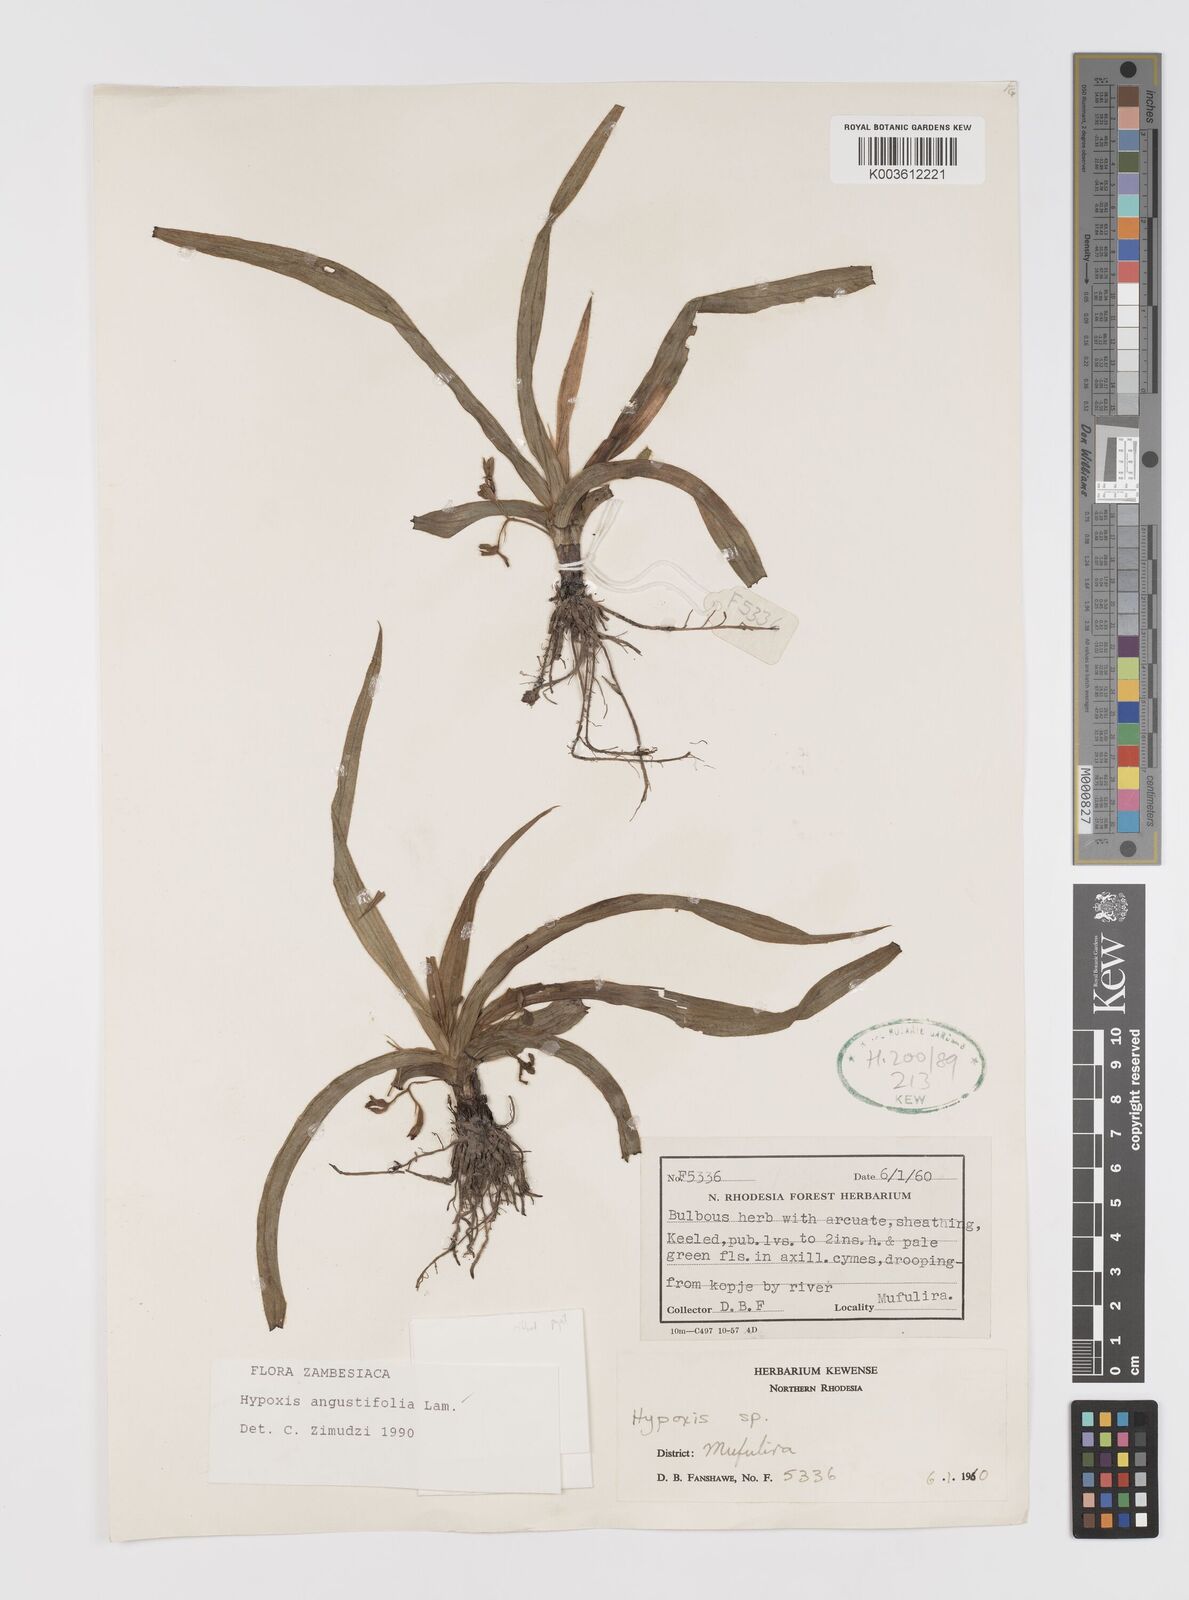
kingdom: Plantae
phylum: Tracheophyta
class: Liliopsida
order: Asparagales
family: Hypoxidaceae
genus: Hypoxis
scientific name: Hypoxis angustifolia
